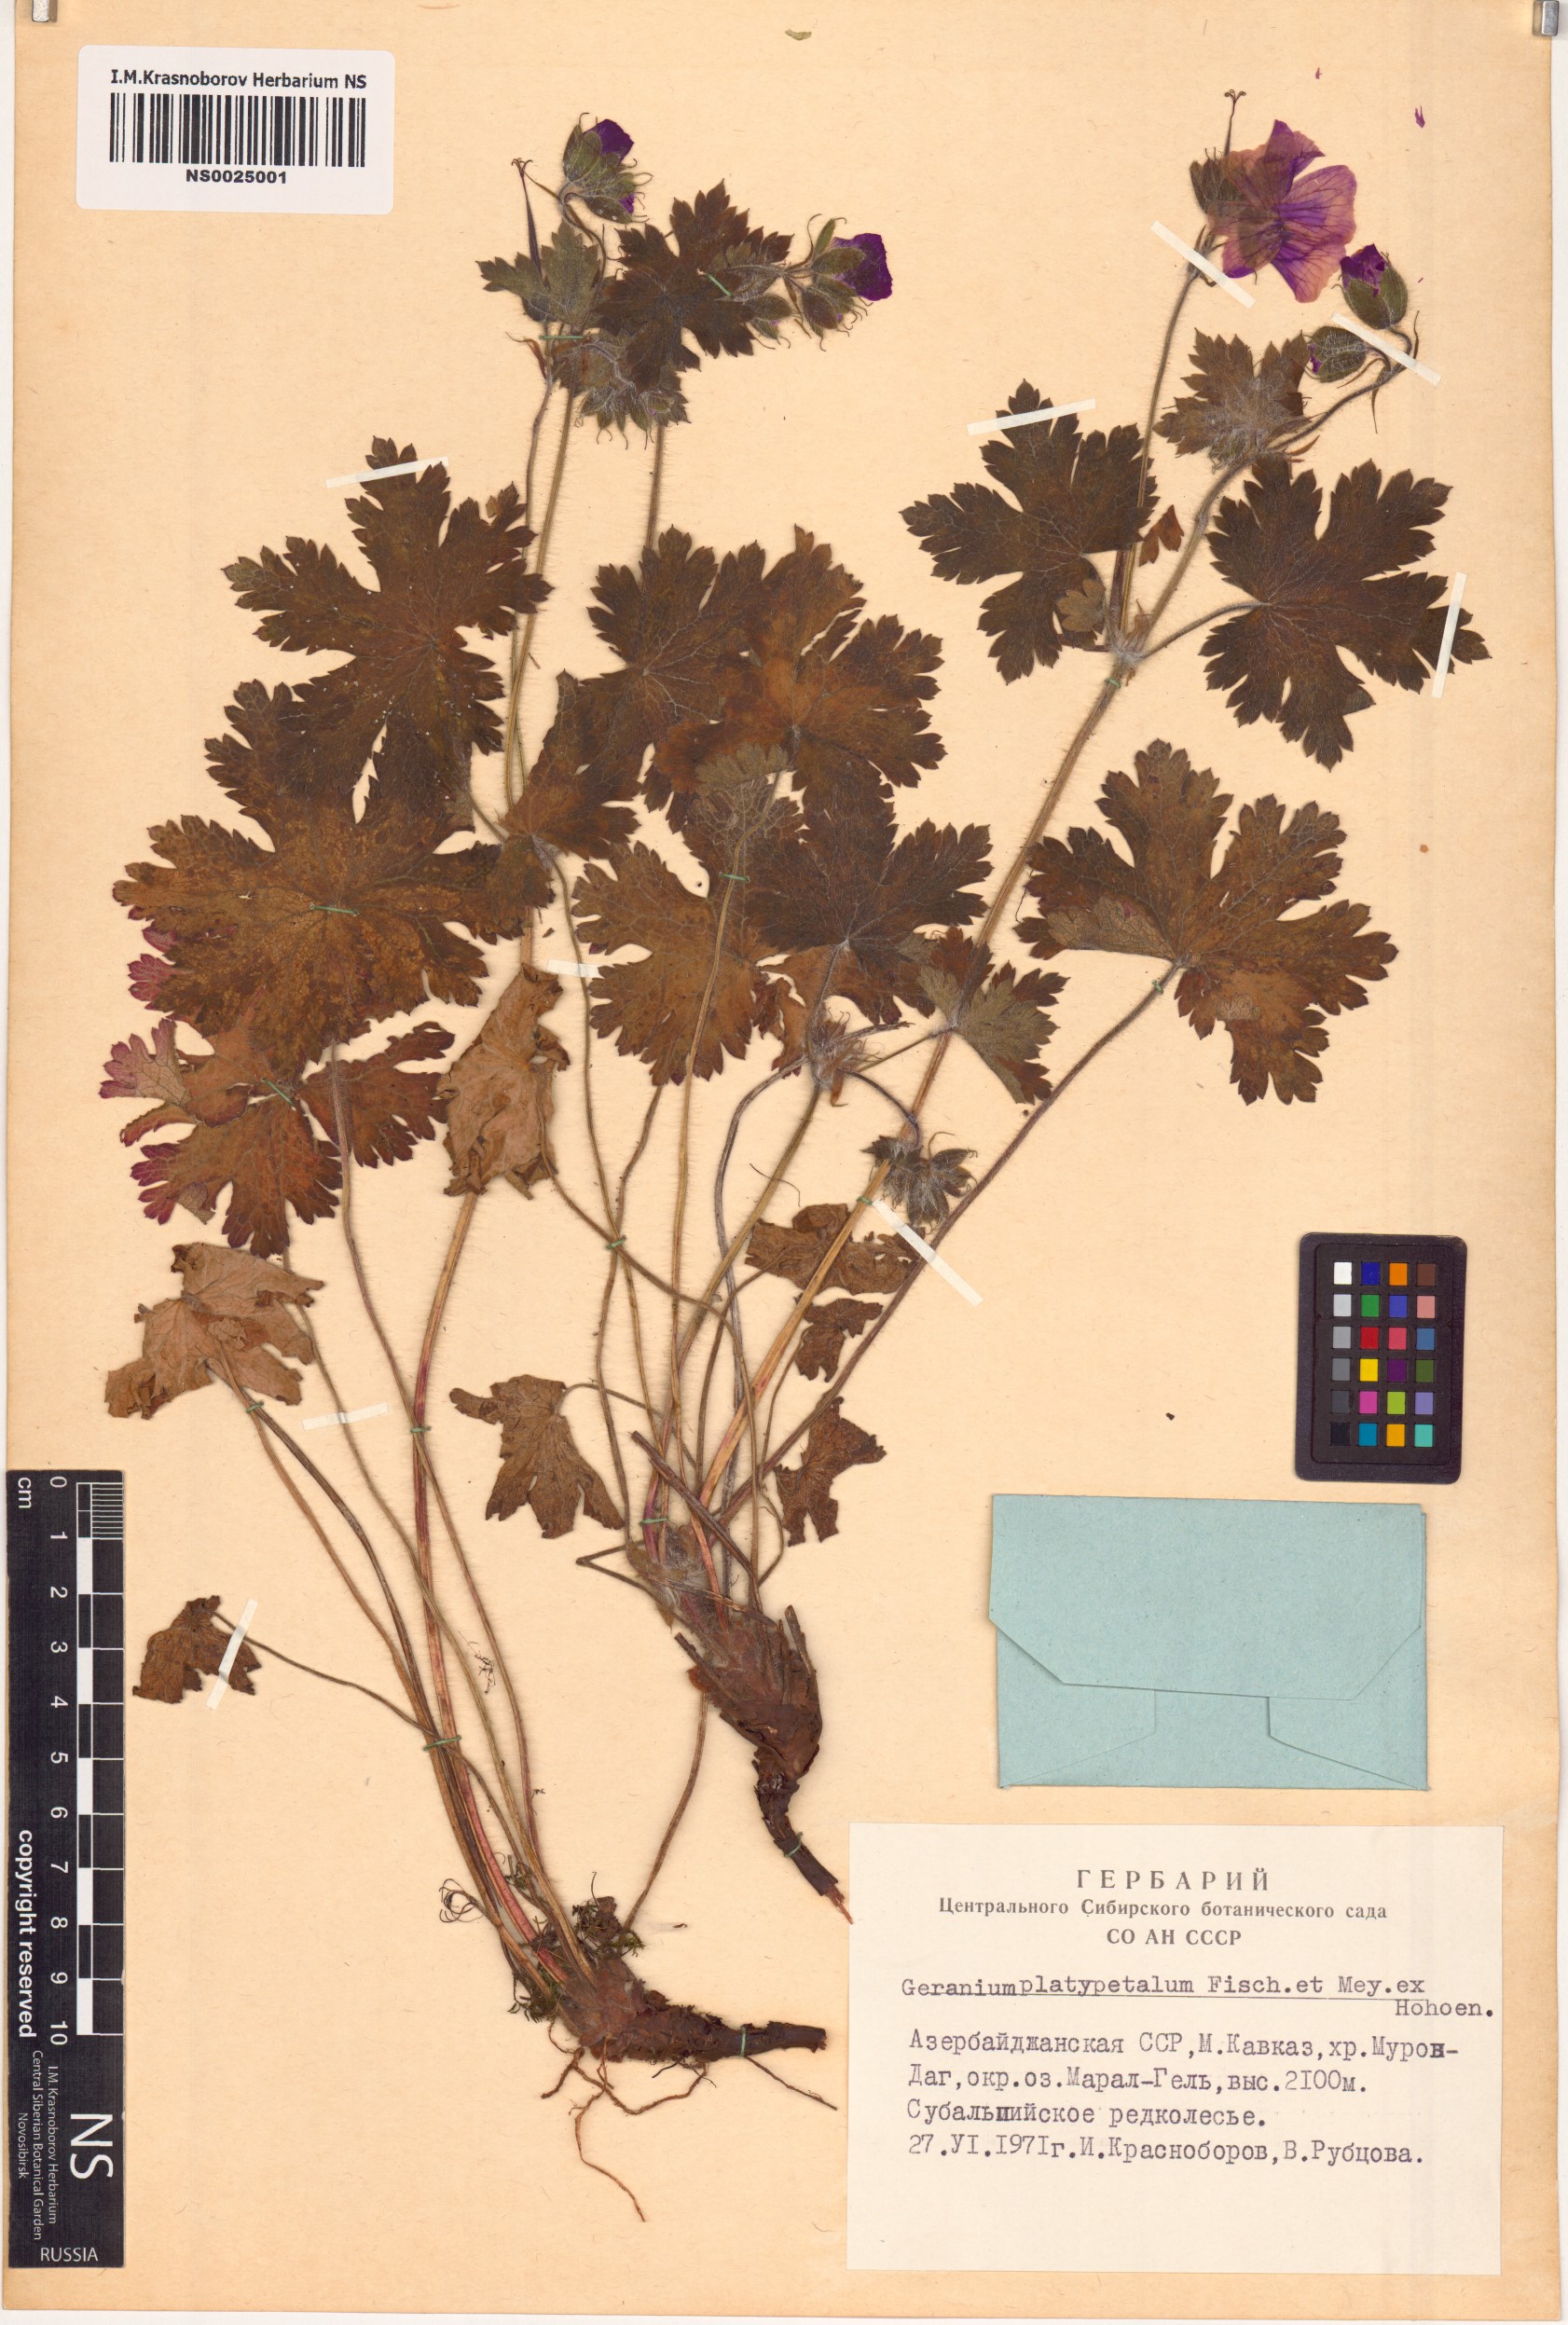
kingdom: Plantae
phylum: Tracheophyta
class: Magnoliopsida
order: Geraniales
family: Geraniaceae
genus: Geranium
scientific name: Geranium platypetalum
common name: Glandular crane's-bill
